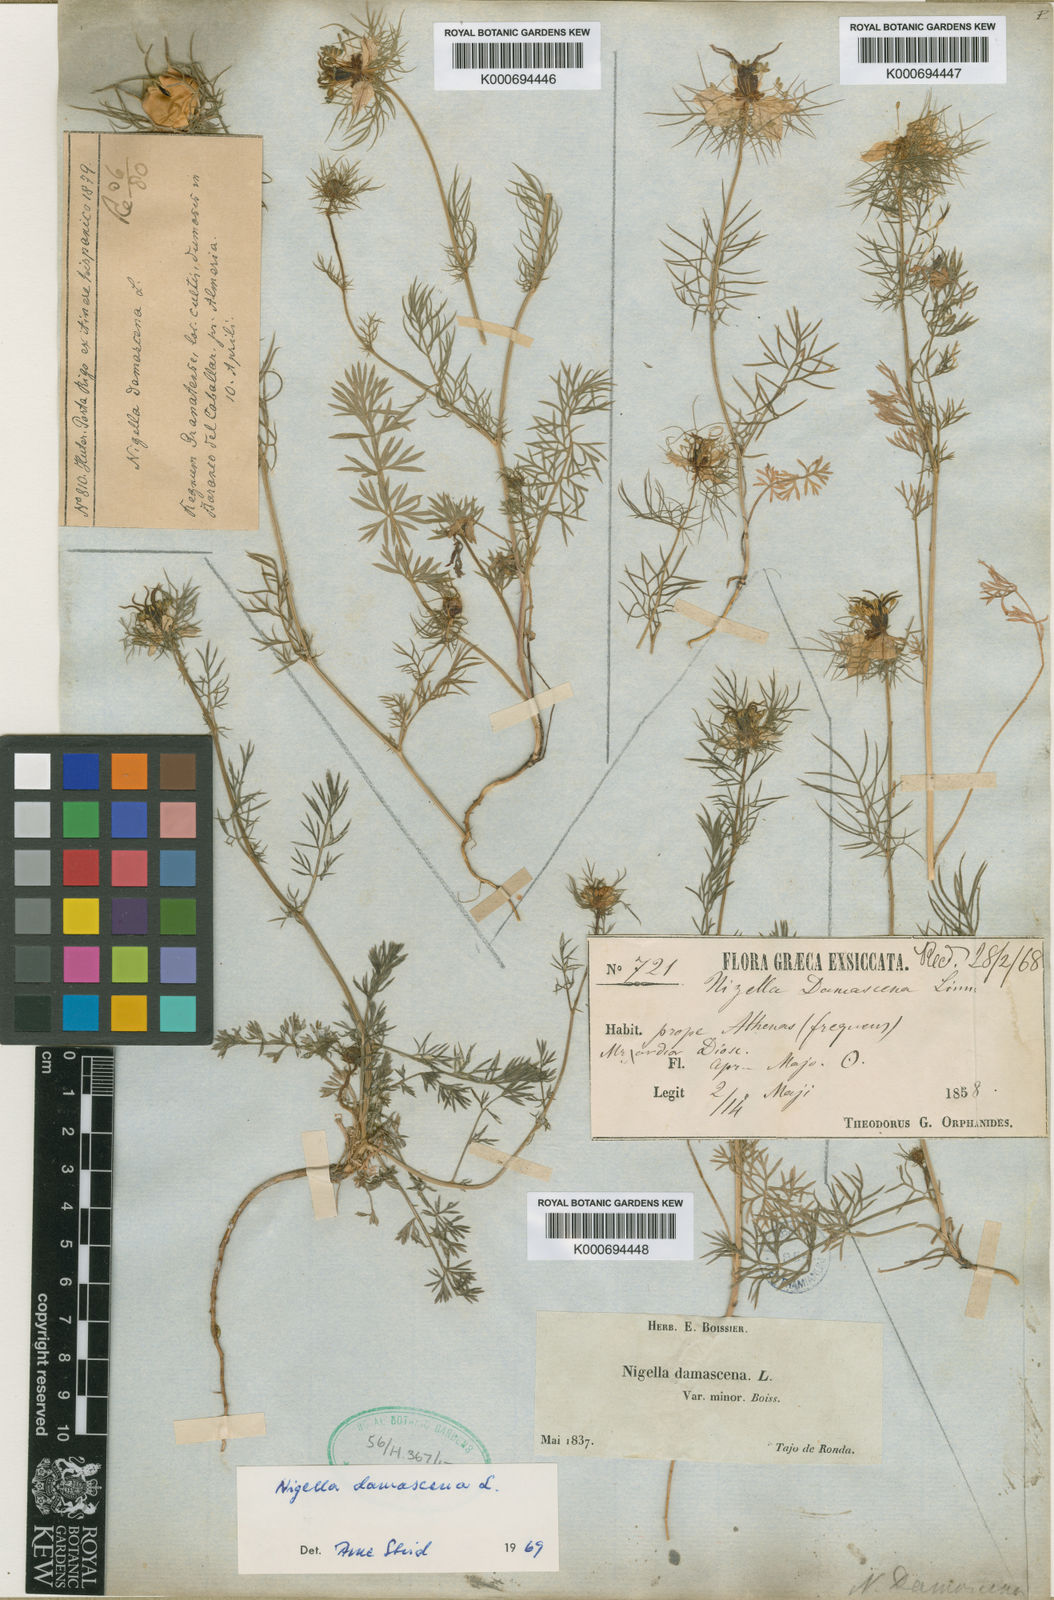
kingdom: Plantae
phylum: Tracheophyta
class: Magnoliopsida
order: Ranunculales
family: Ranunculaceae
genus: Nigella
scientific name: Nigella damascena
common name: Love-in-a-mist
